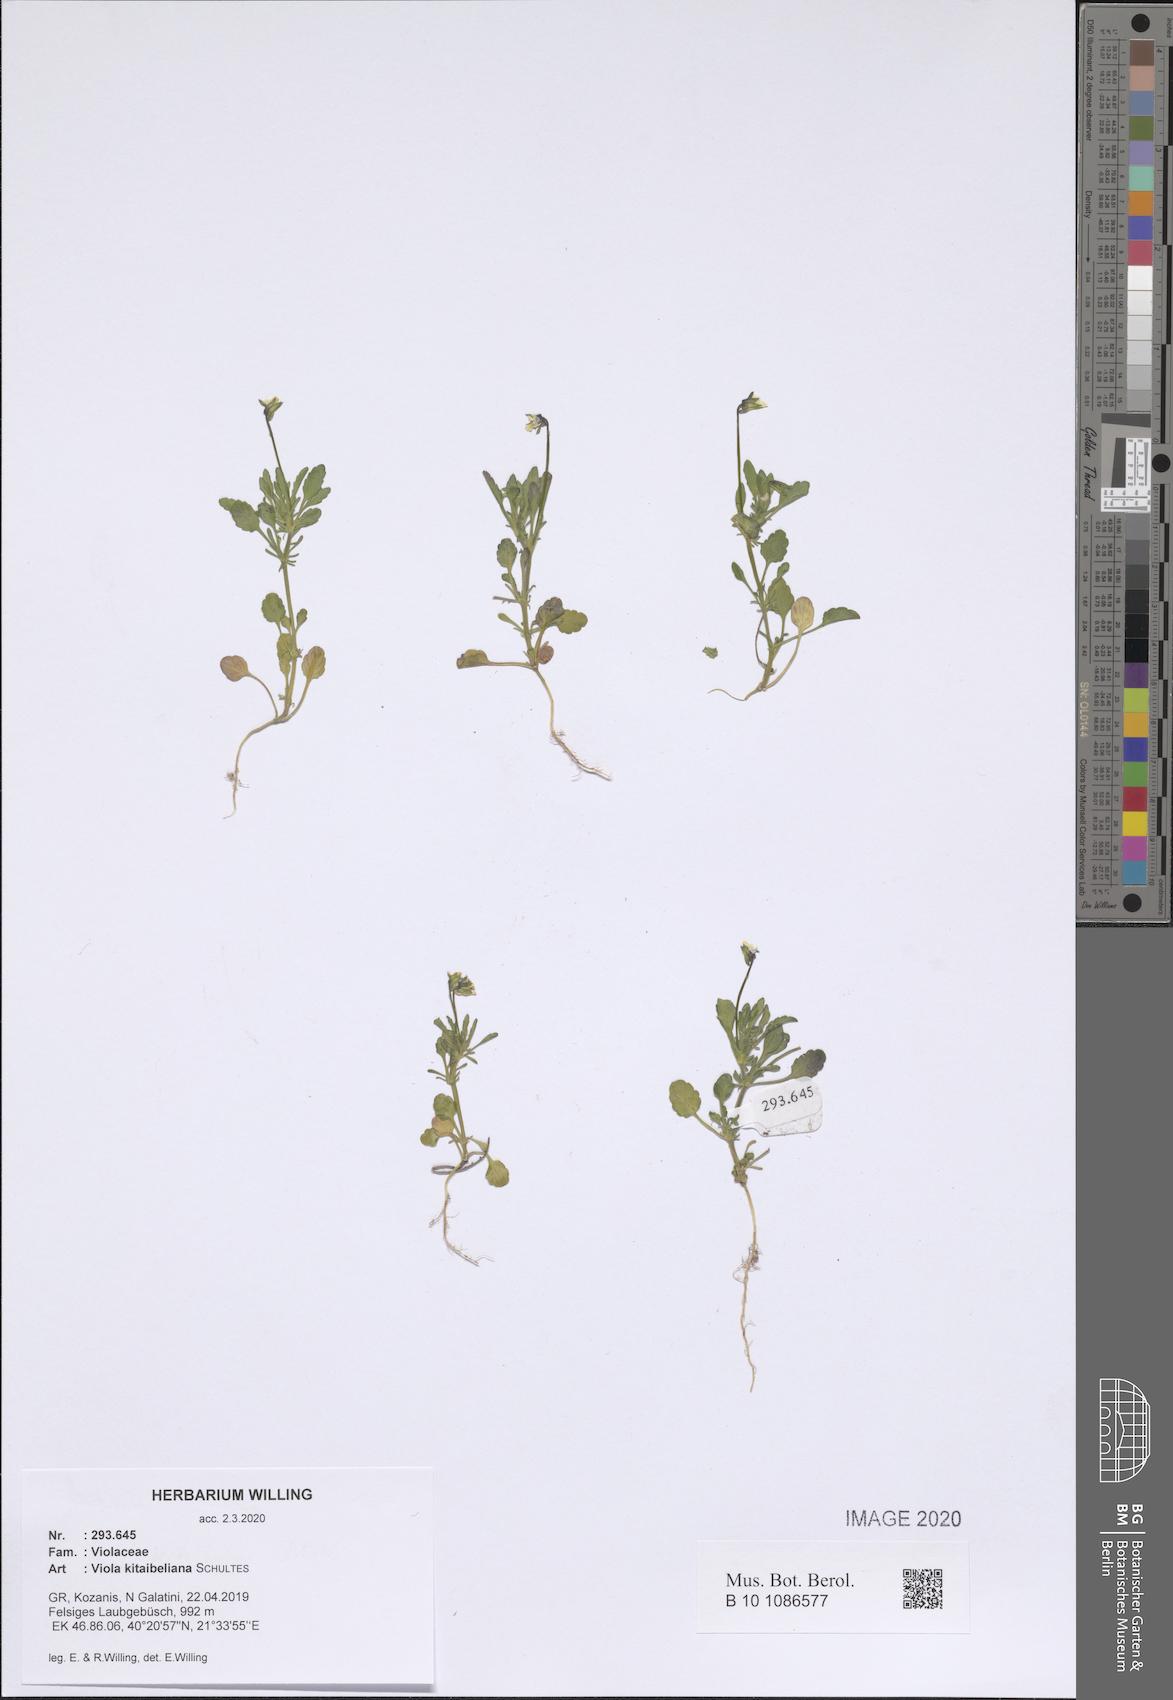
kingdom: Plantae
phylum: Tracheophyta
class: Magnoliopsida
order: Malpighiales
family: Violaceae
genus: Viola
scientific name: Viola kitaibeliana
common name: Dwarf pansy
